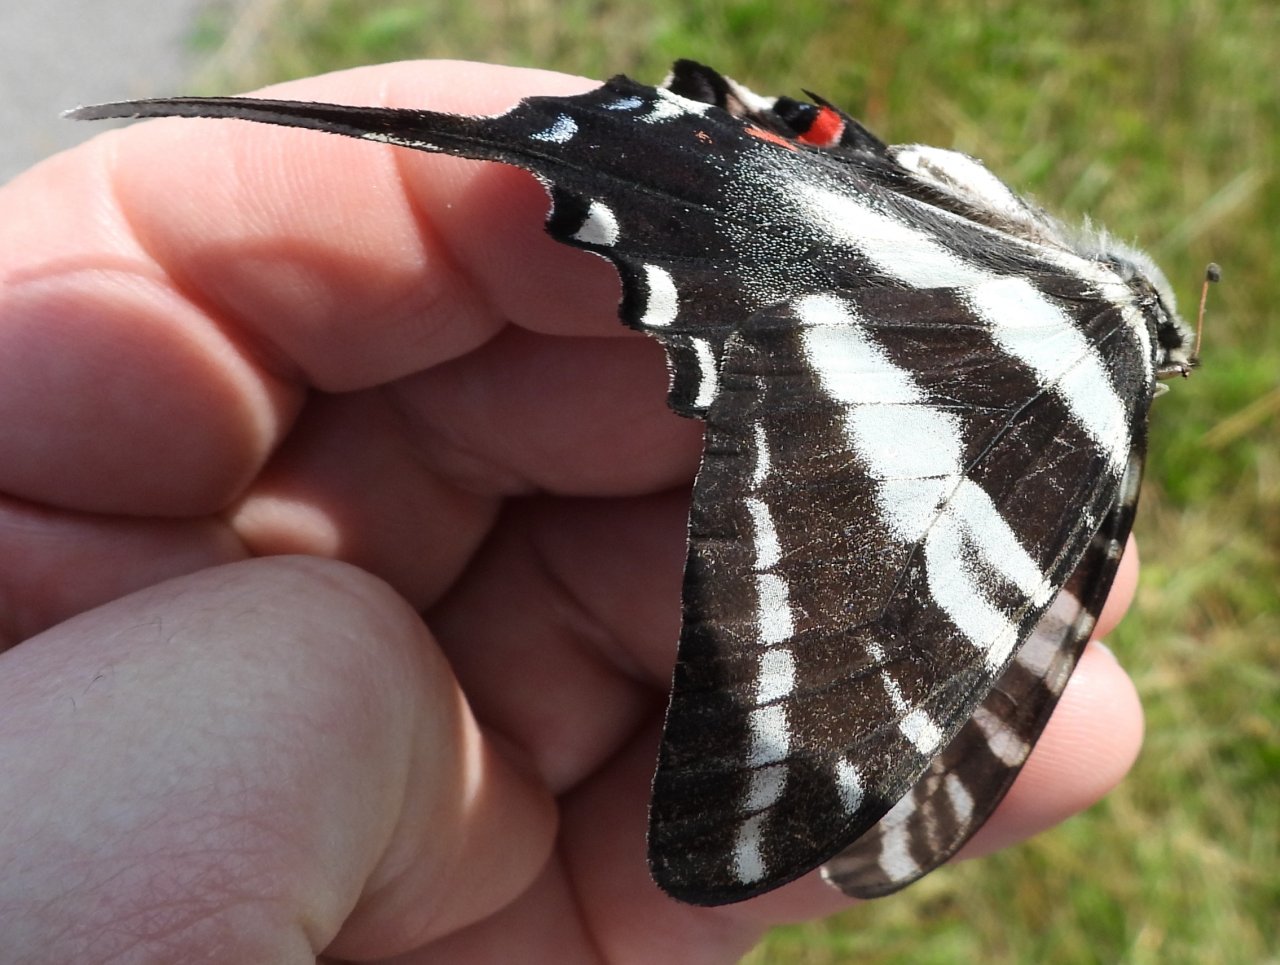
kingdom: Animalia
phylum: Arthropoda
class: Insecta
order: Lepidoptera
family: Papilionidae
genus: Protographium
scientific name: Protographium marcellus
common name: Zebra Swallowtail
